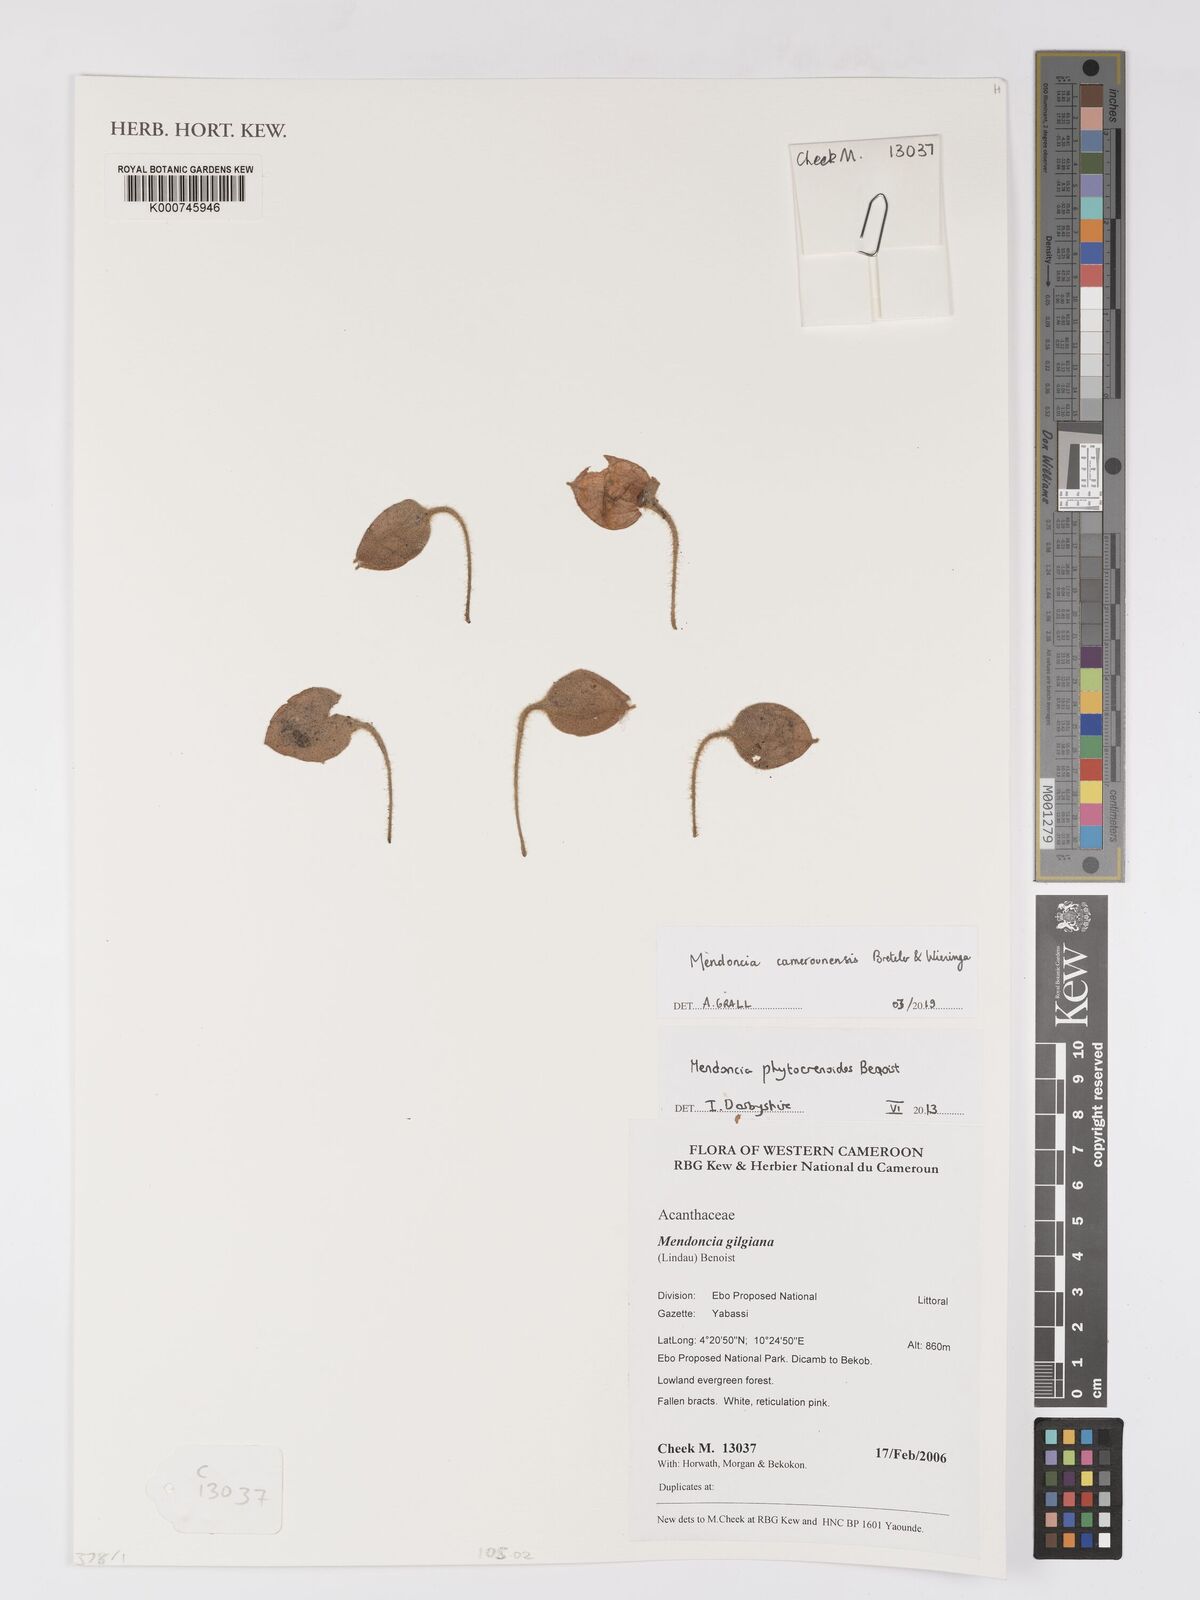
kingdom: Plantae
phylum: Tracheophyta
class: Magnoliopsida
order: Lamiales
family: Acanthaceae
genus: Mendoncia
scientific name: Mendoncia phytocrenoides
